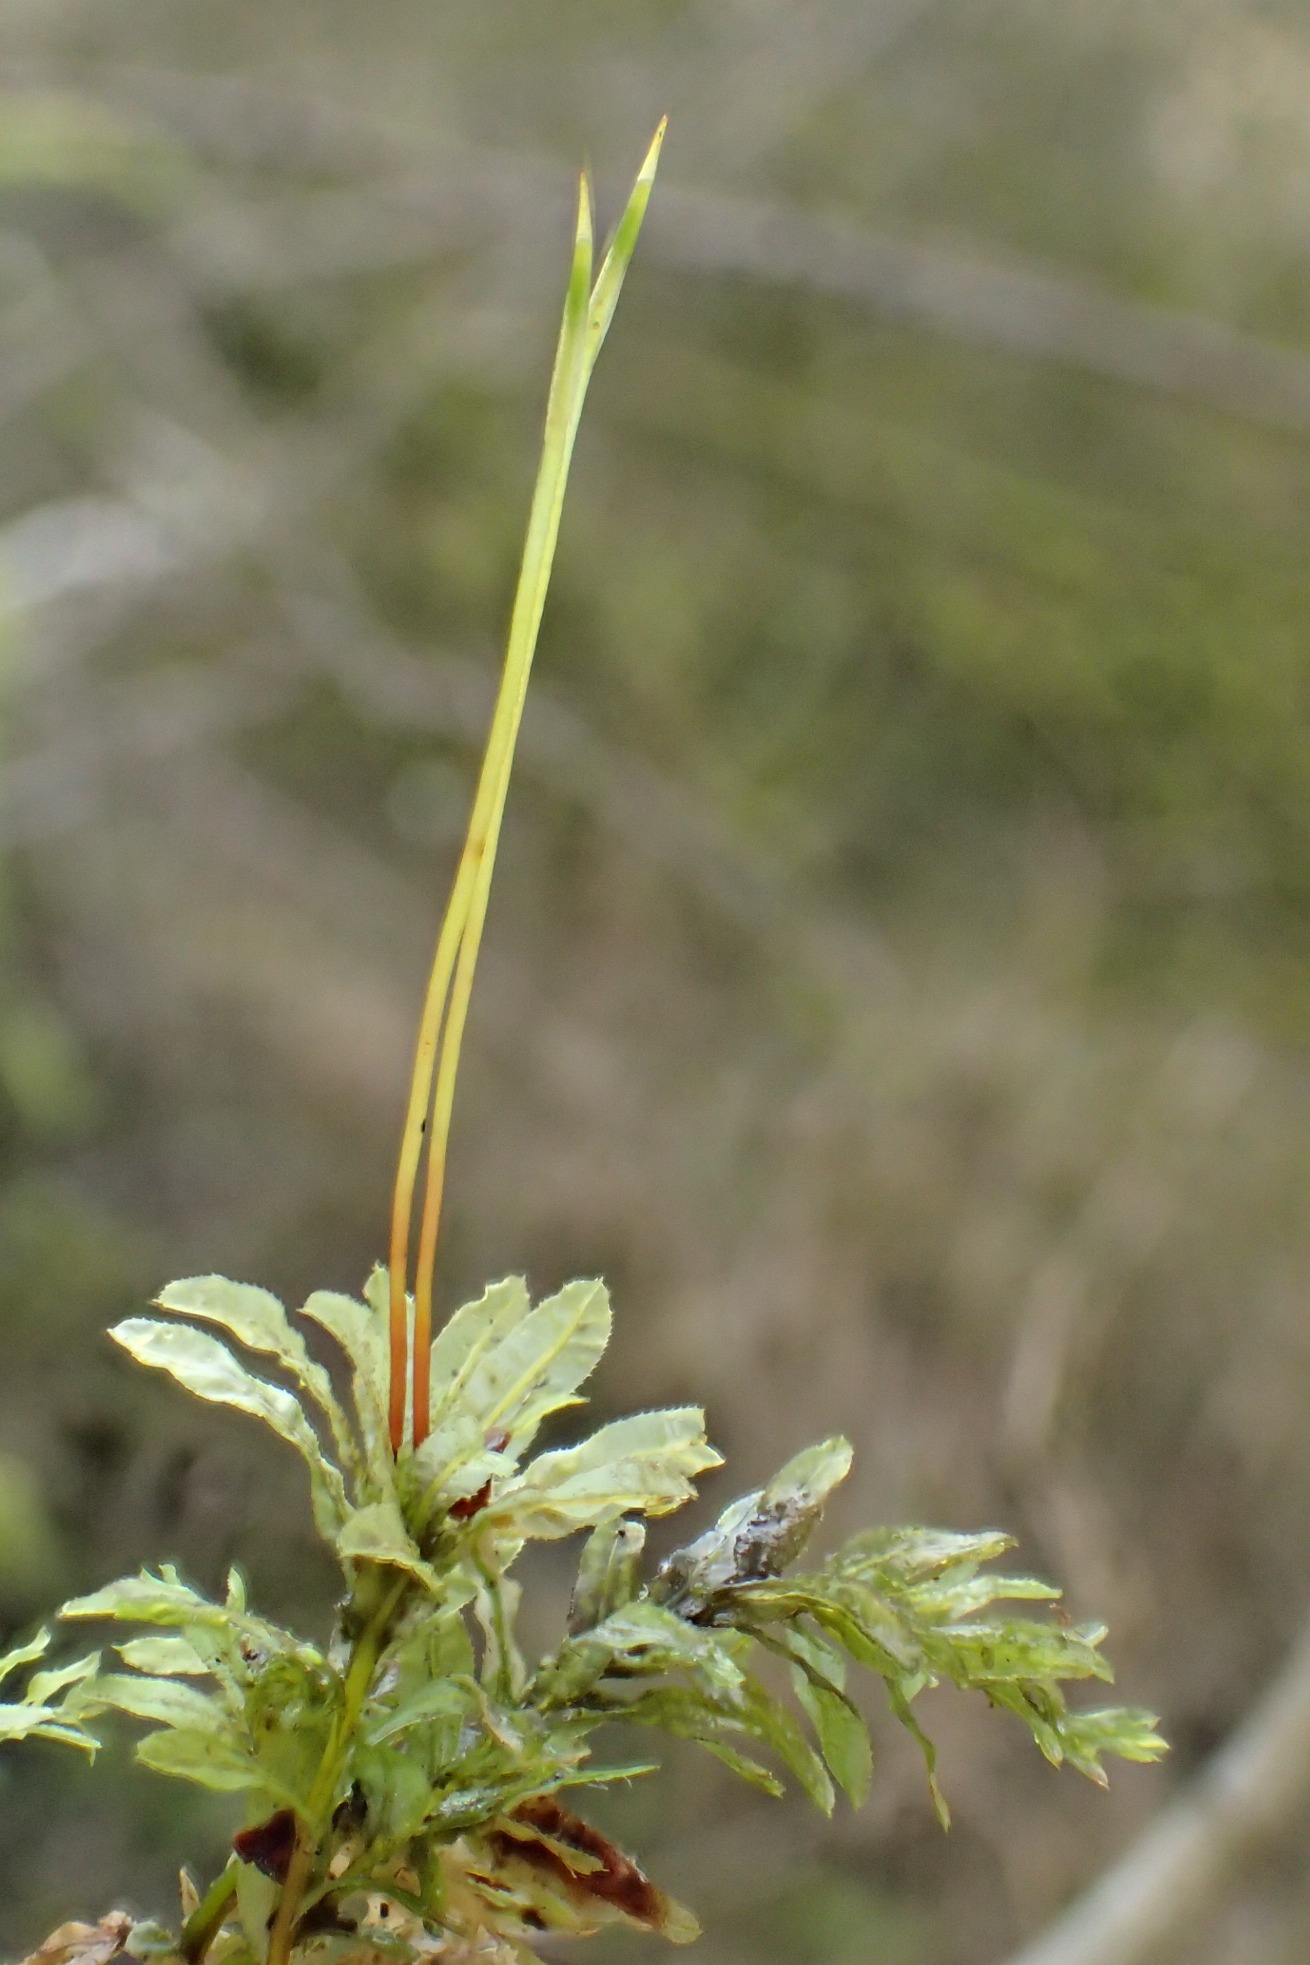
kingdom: Plantae
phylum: Bryophyta
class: Bryopsida
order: Bryales
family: Mniaceae
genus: Plagiomnium
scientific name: Plagiomnium undulatum
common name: Bølget krybstjerne
